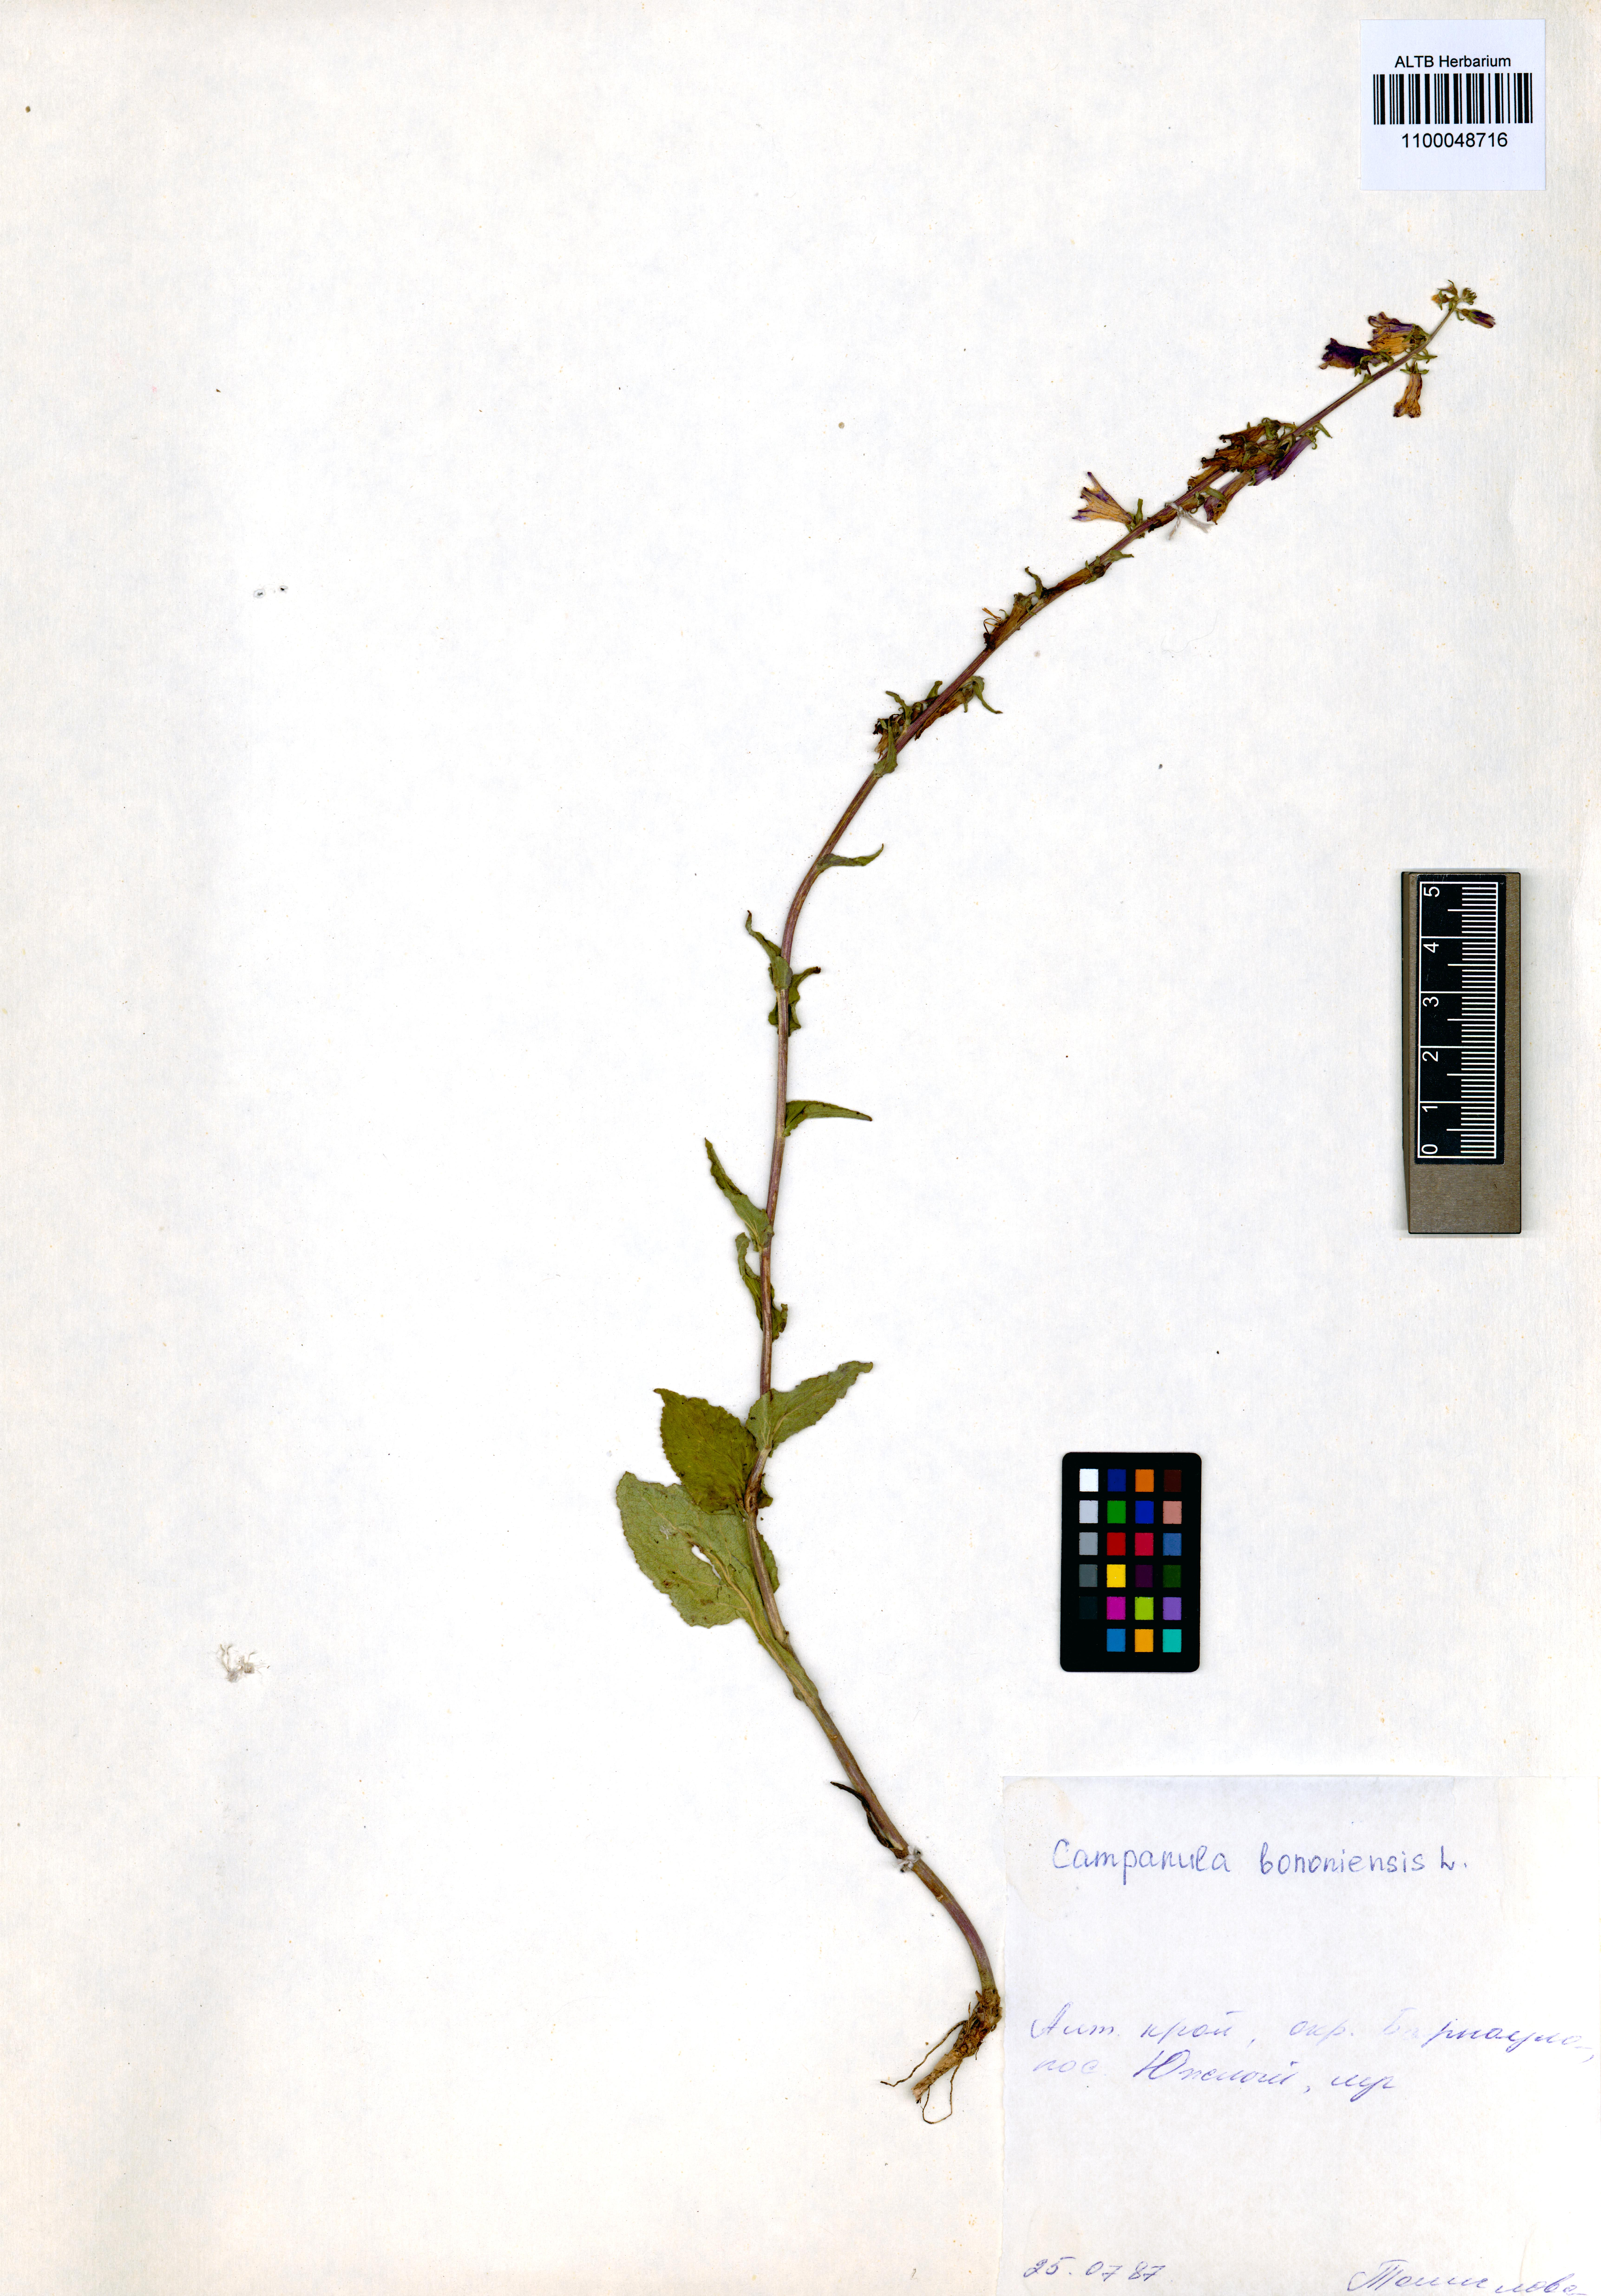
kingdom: Plantae
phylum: Tracheophyta
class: Magnoliopsida
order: Asterales
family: Campanulaceae
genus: Campanula
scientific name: Campanula bononiensis
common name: Pale bellflower
